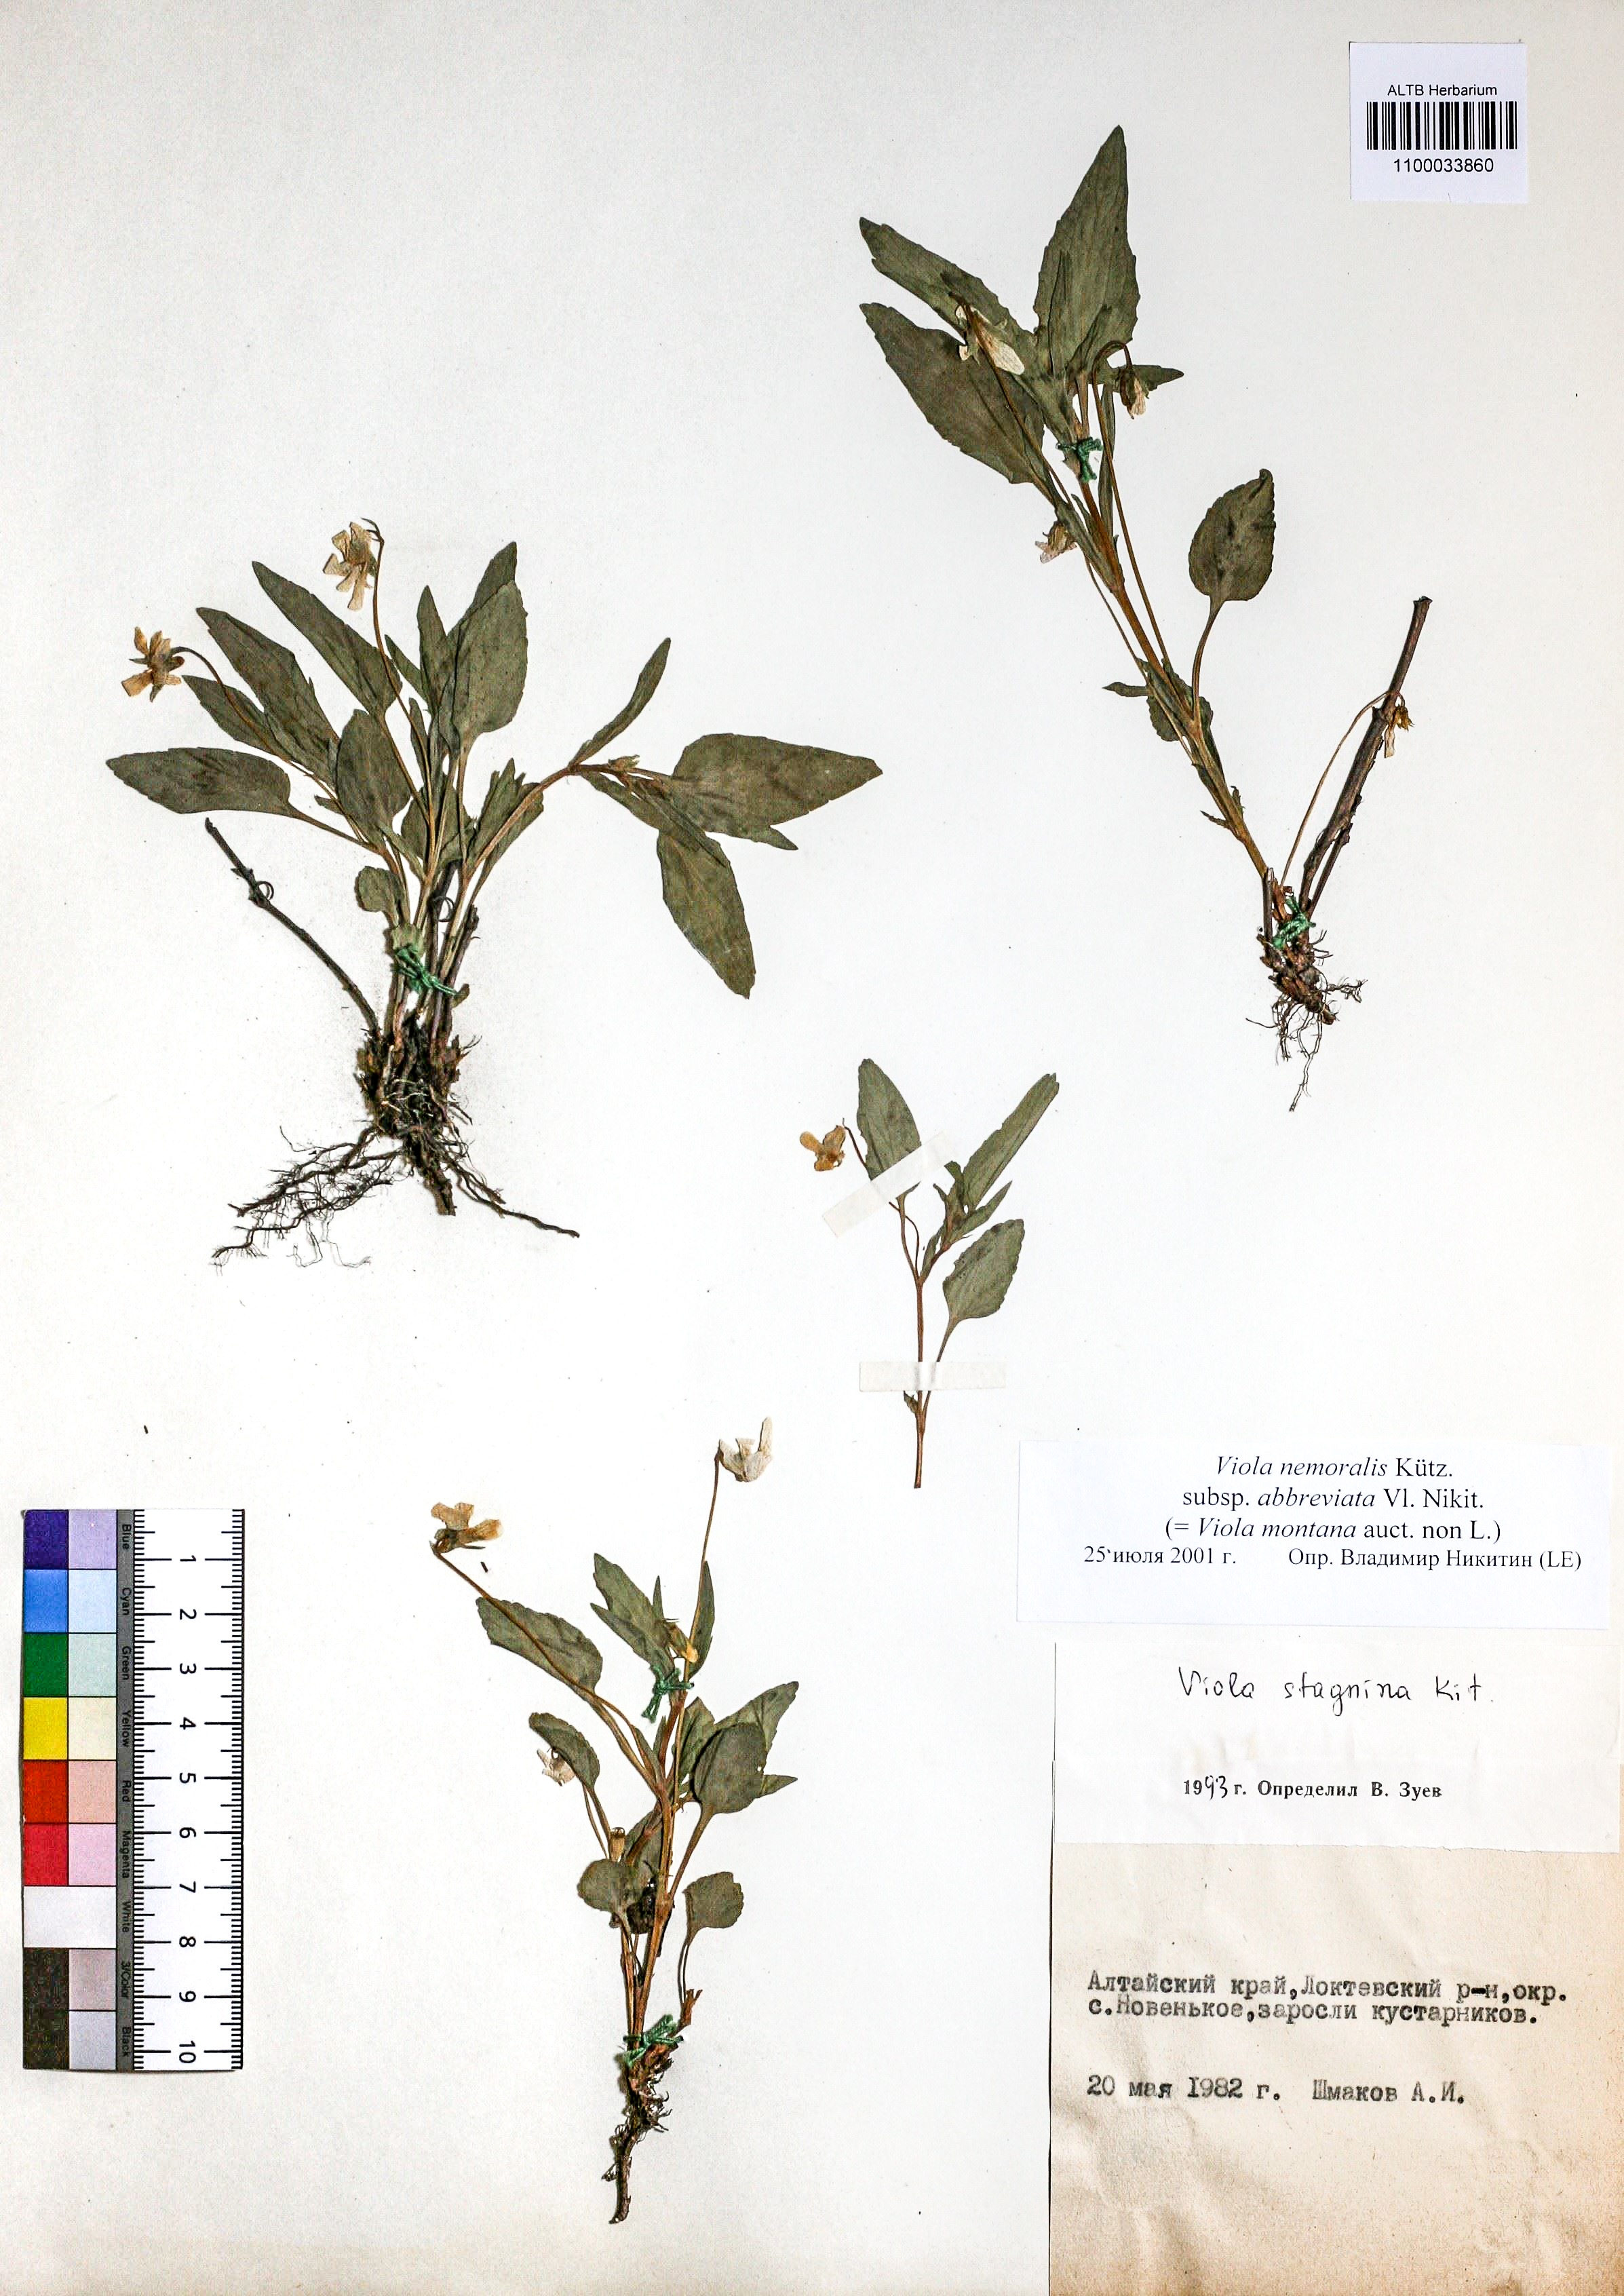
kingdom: Plantae
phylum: Tracheophyta
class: Magnoliopsida
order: Malpighiales
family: Violaceae
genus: Viola
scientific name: Viola ruppii
